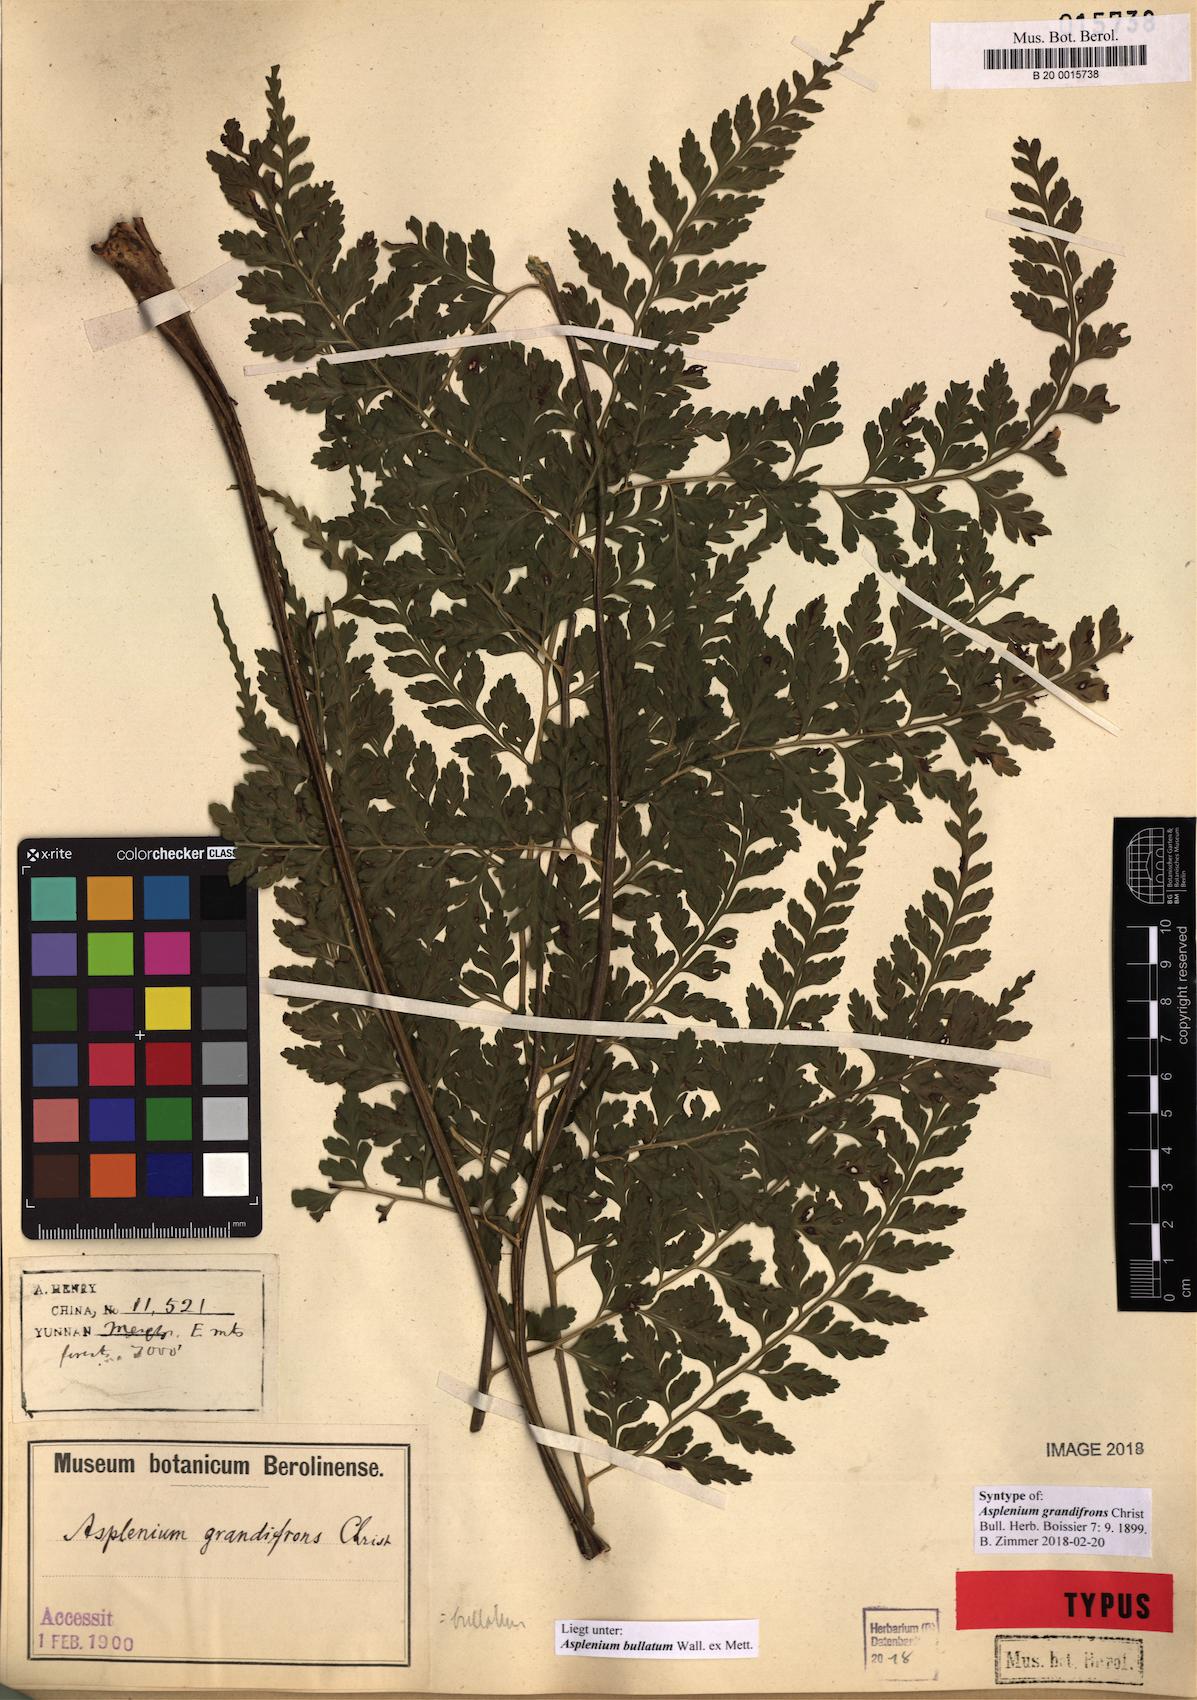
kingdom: Plantae
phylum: Tracheophyta
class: Polypodiopsida
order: Polypodiales
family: Aspleniaceae
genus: Asplenium
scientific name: Asplenium bullatum
